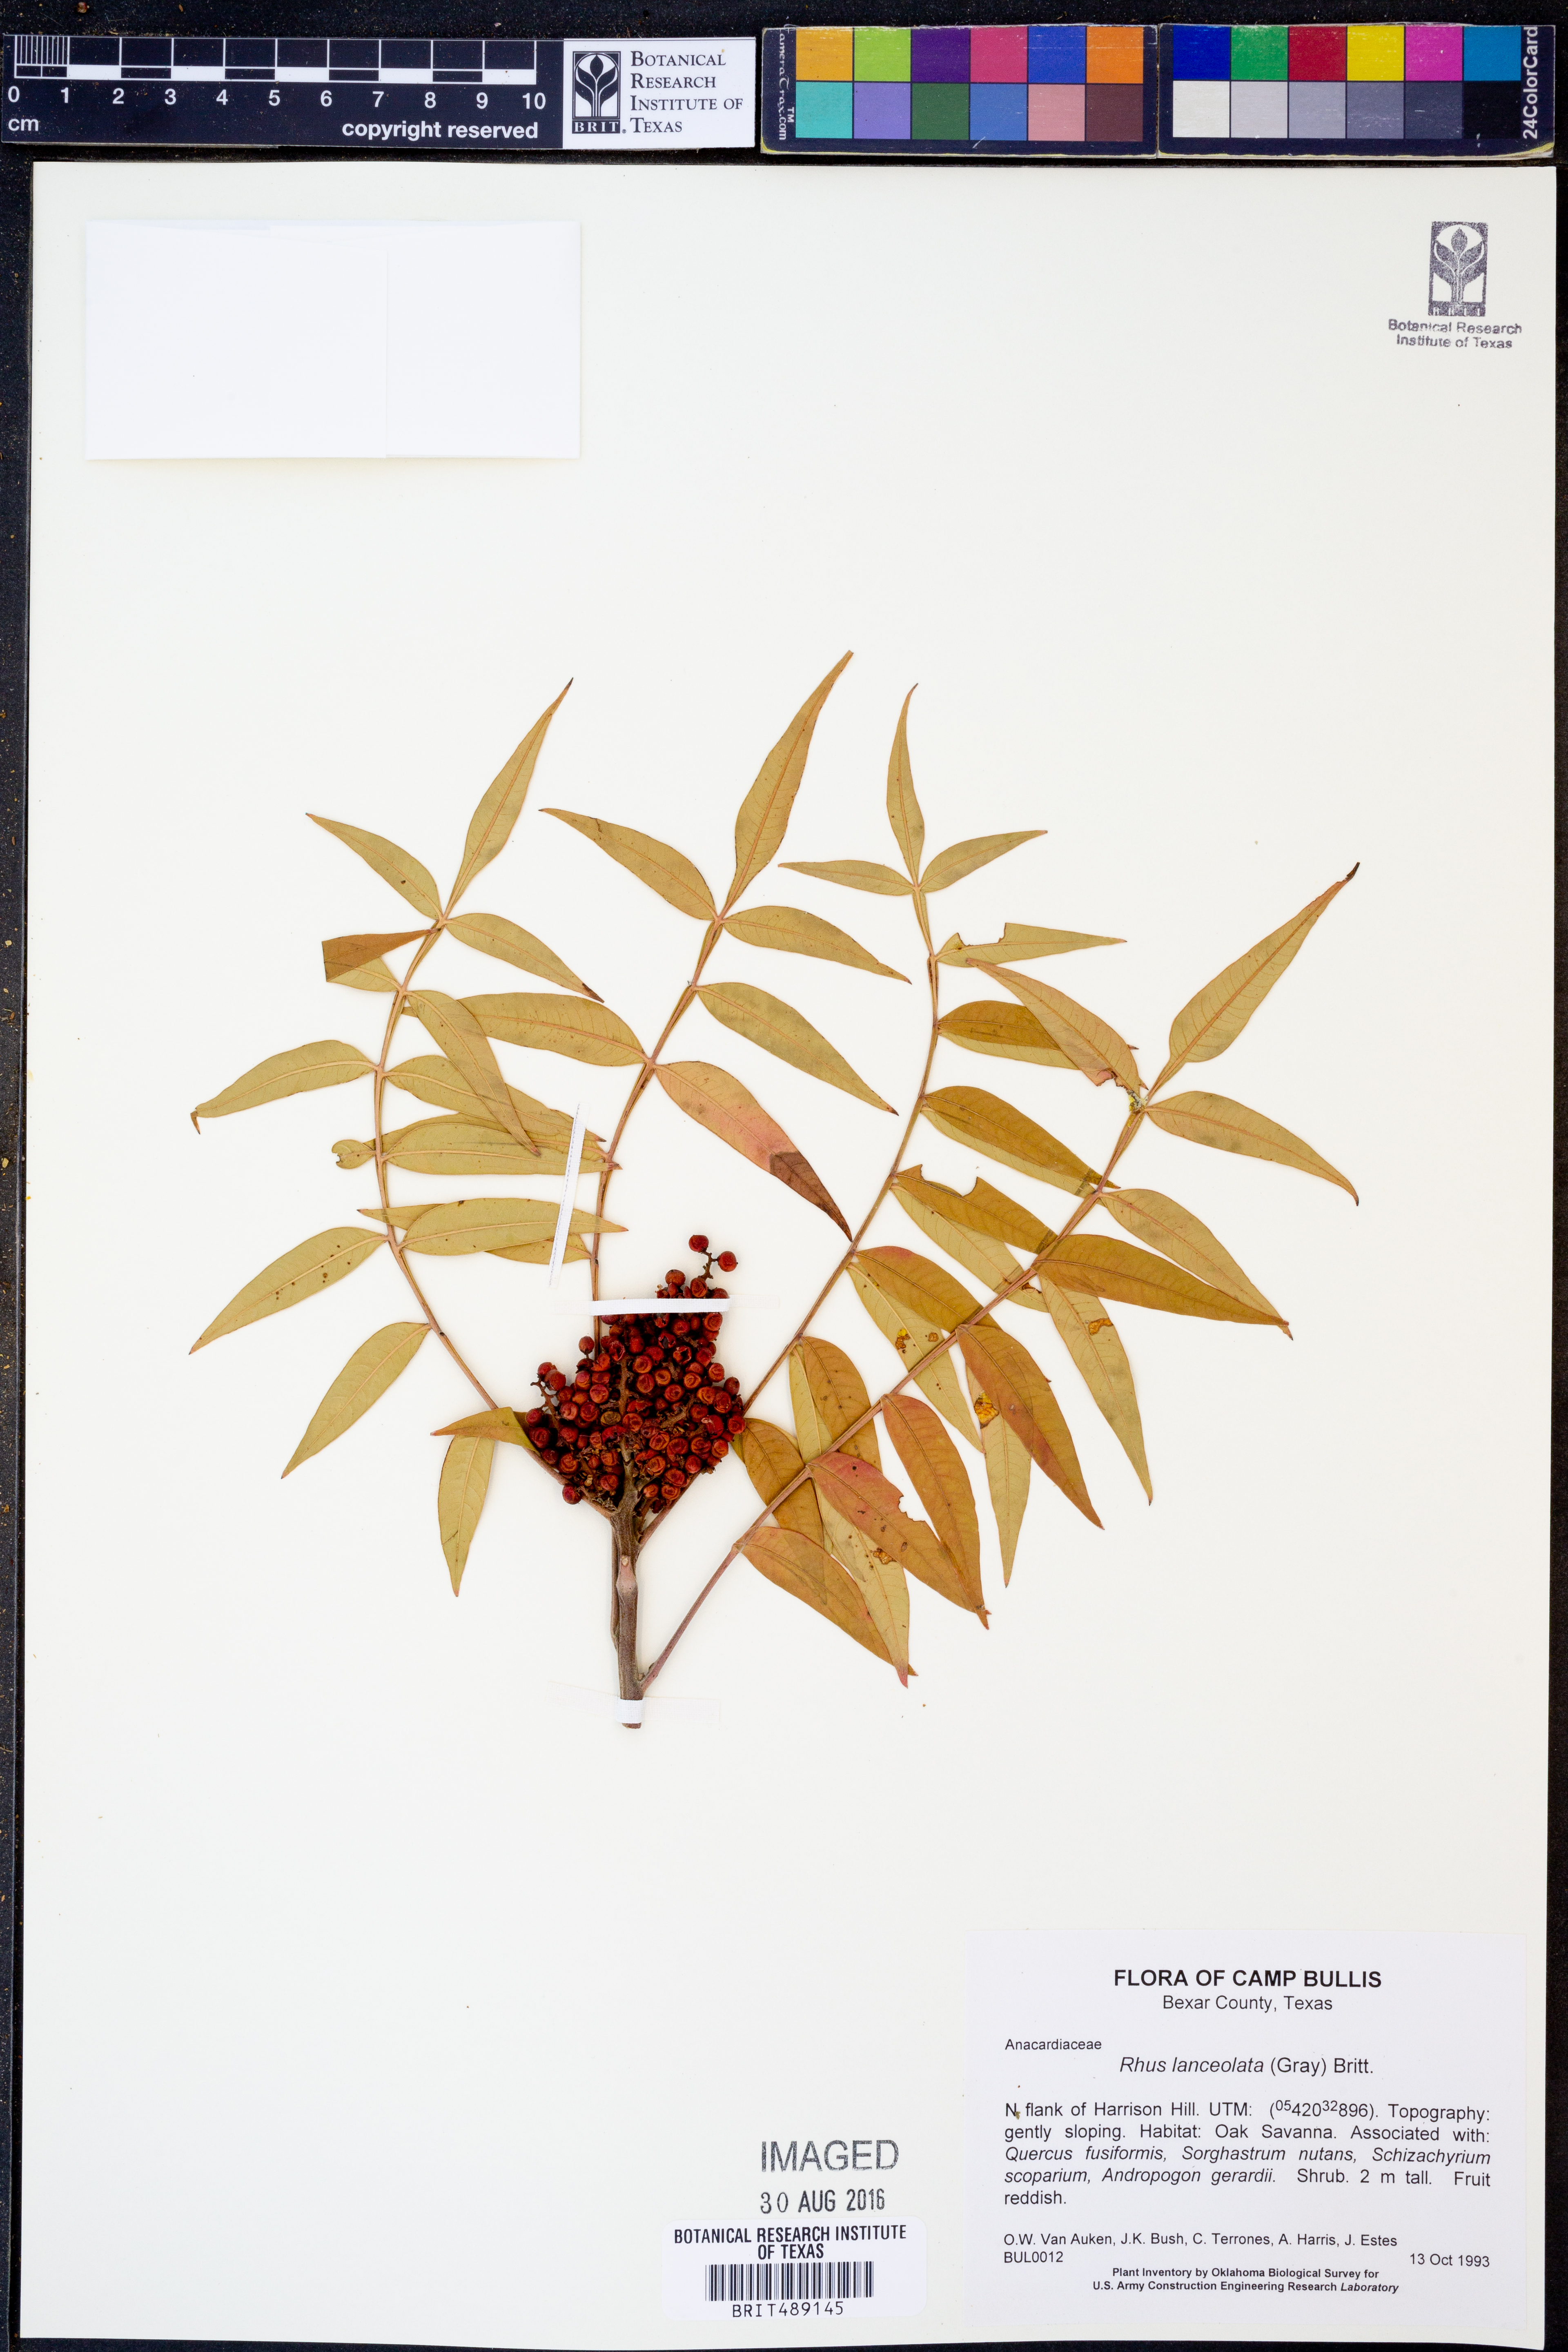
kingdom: Plantae
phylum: Tracheophyta
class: Magnoliopsida
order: Sapindales
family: Anacardiaceae
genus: Rhus
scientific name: Rhus lanceolata
